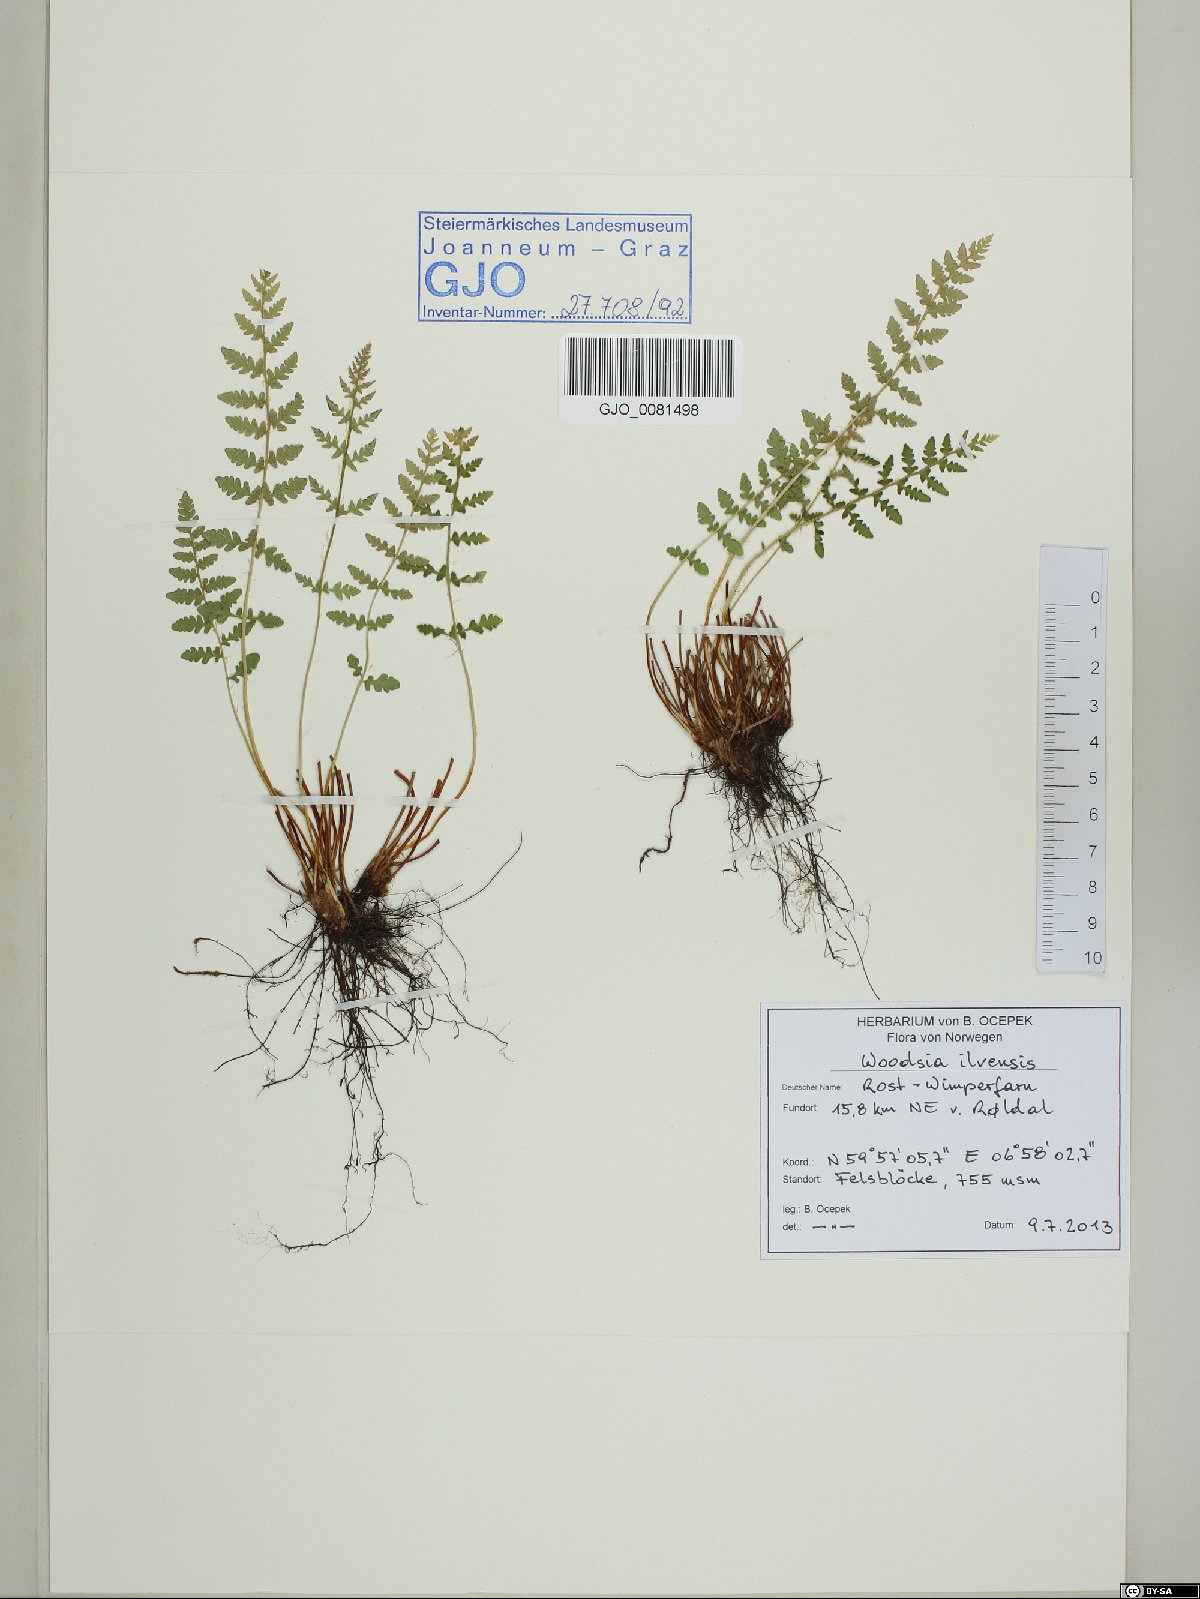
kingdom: Plantae
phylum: Tracheophyta
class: Polypodiopsida
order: Polypodiales
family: Woodsiaceae
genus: Woodsia
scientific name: Woodsia ilvensis
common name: Fragrant woodsia
